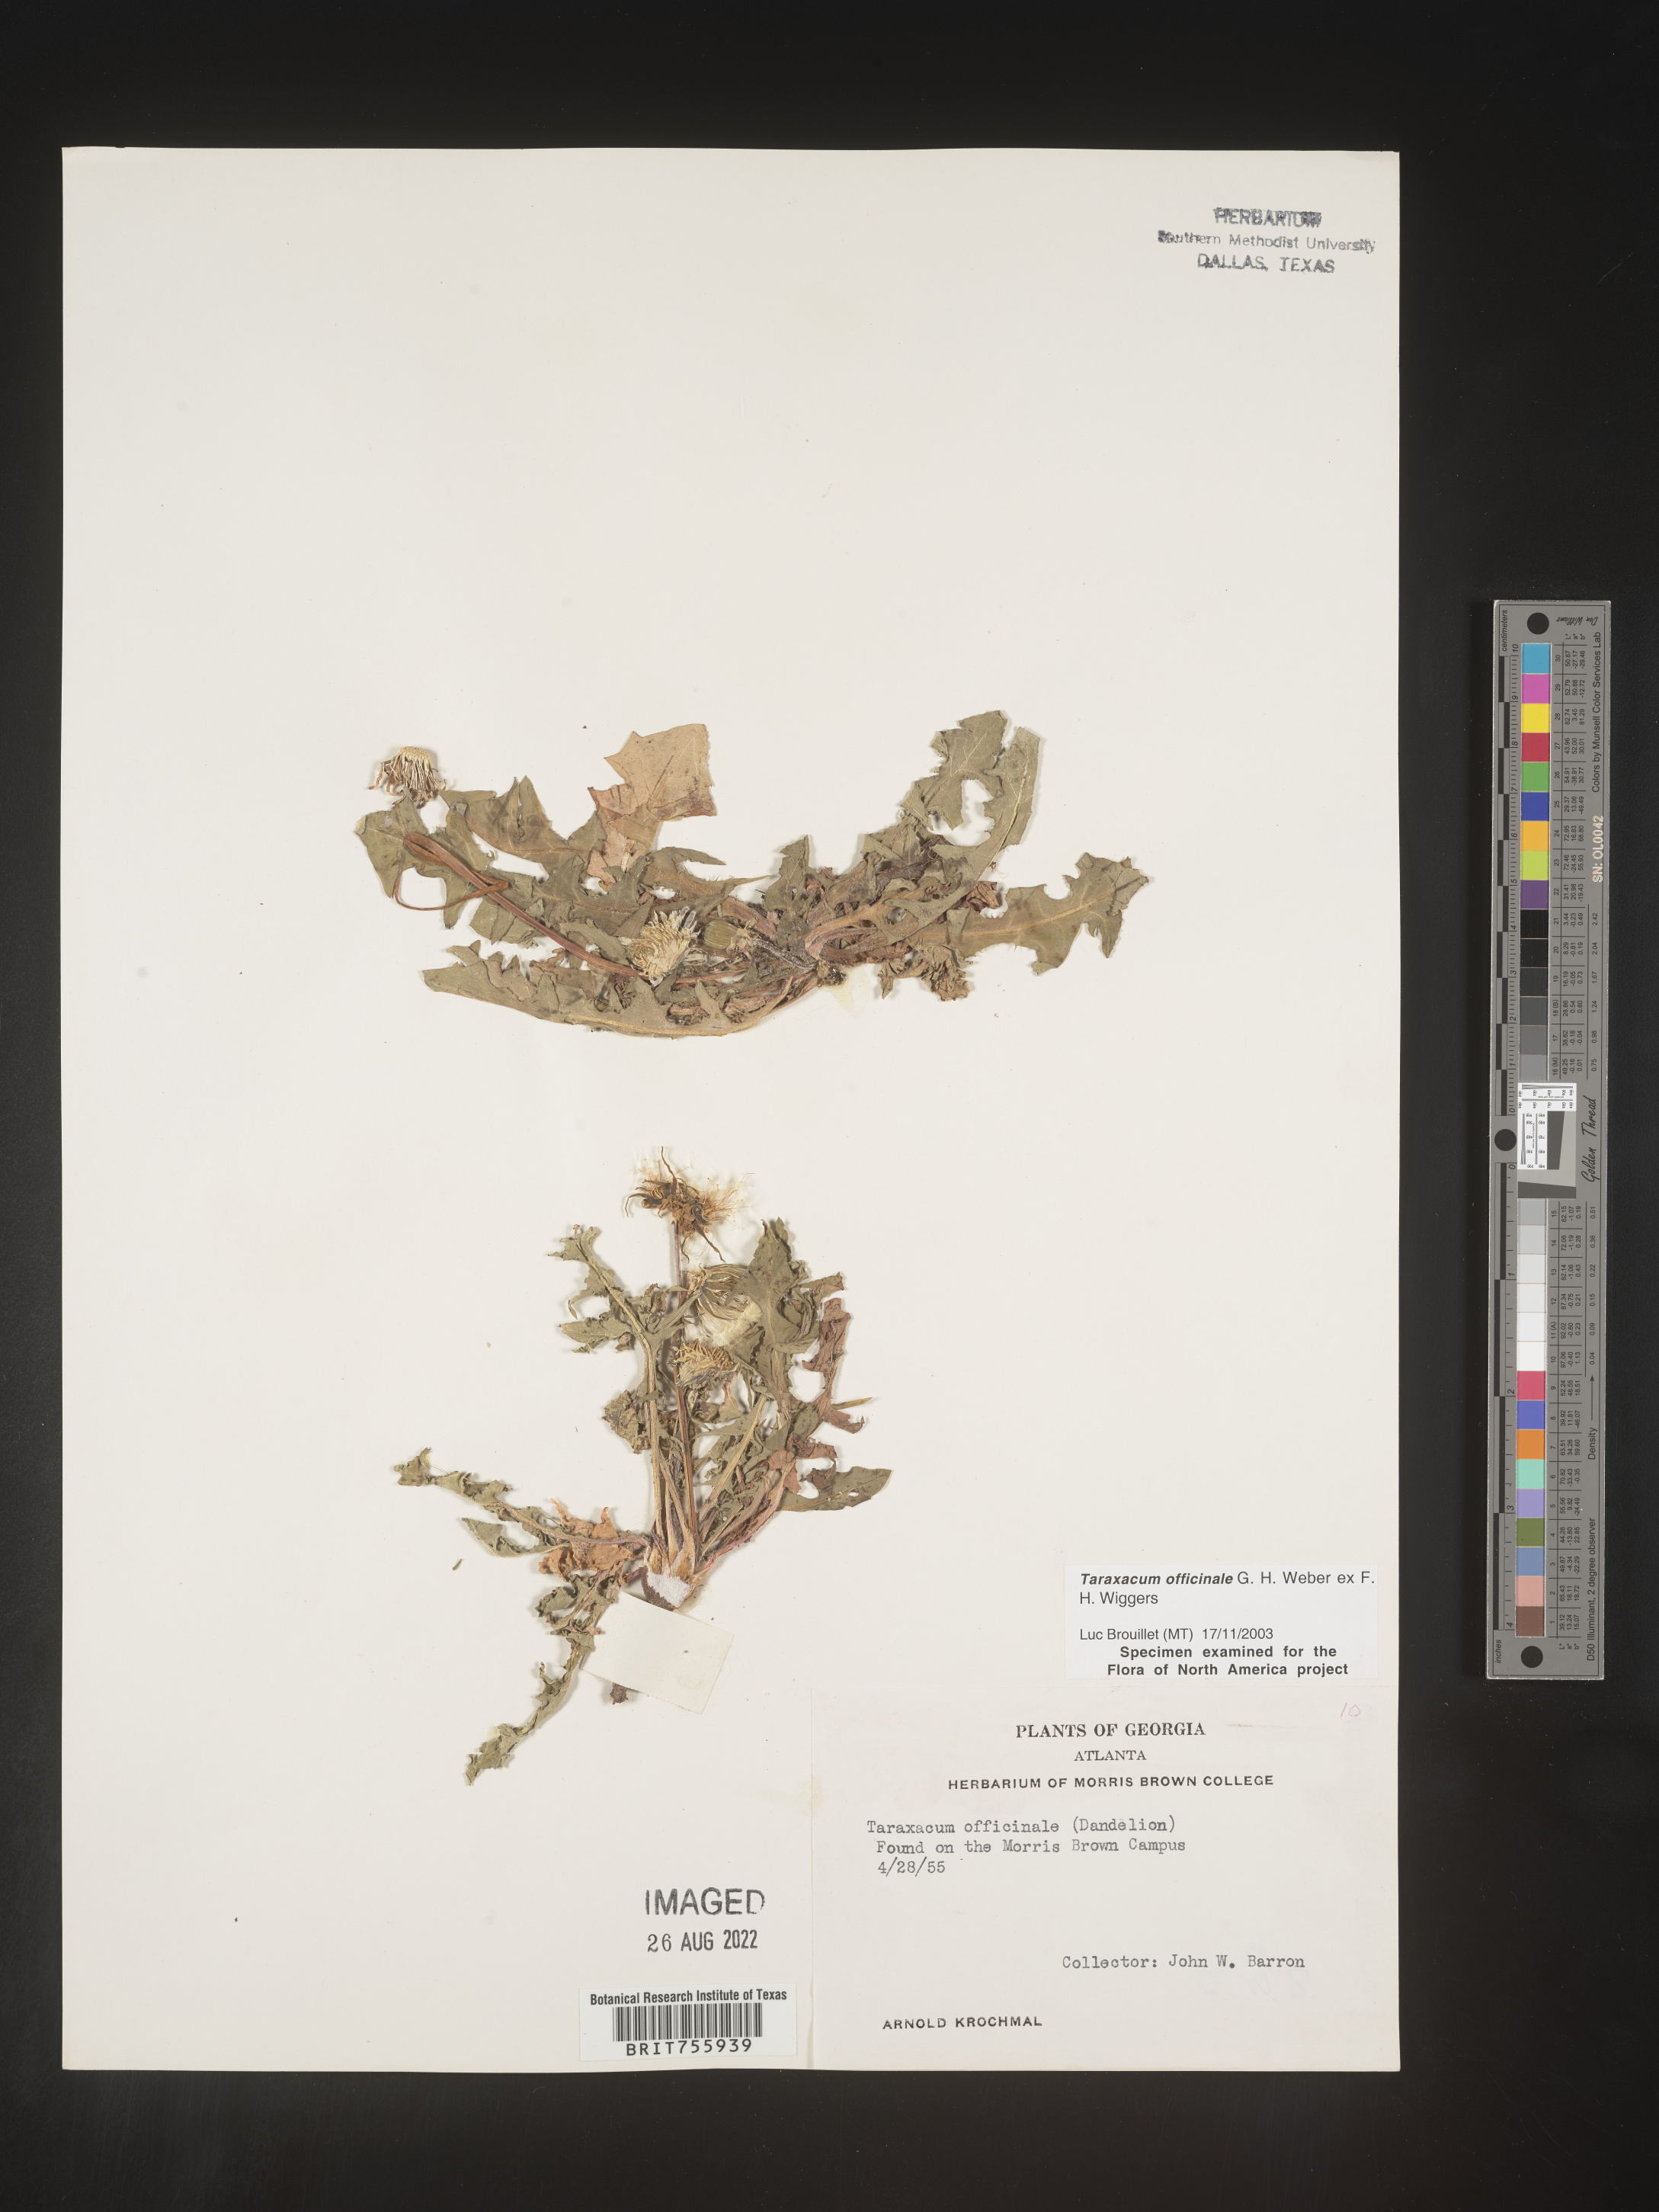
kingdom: Plantae
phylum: Tracheophyta
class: Magnoliopsida
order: Asterales
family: Asteraceae
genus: Taraxacum
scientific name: Taraxacum officinale
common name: Common dandelion
